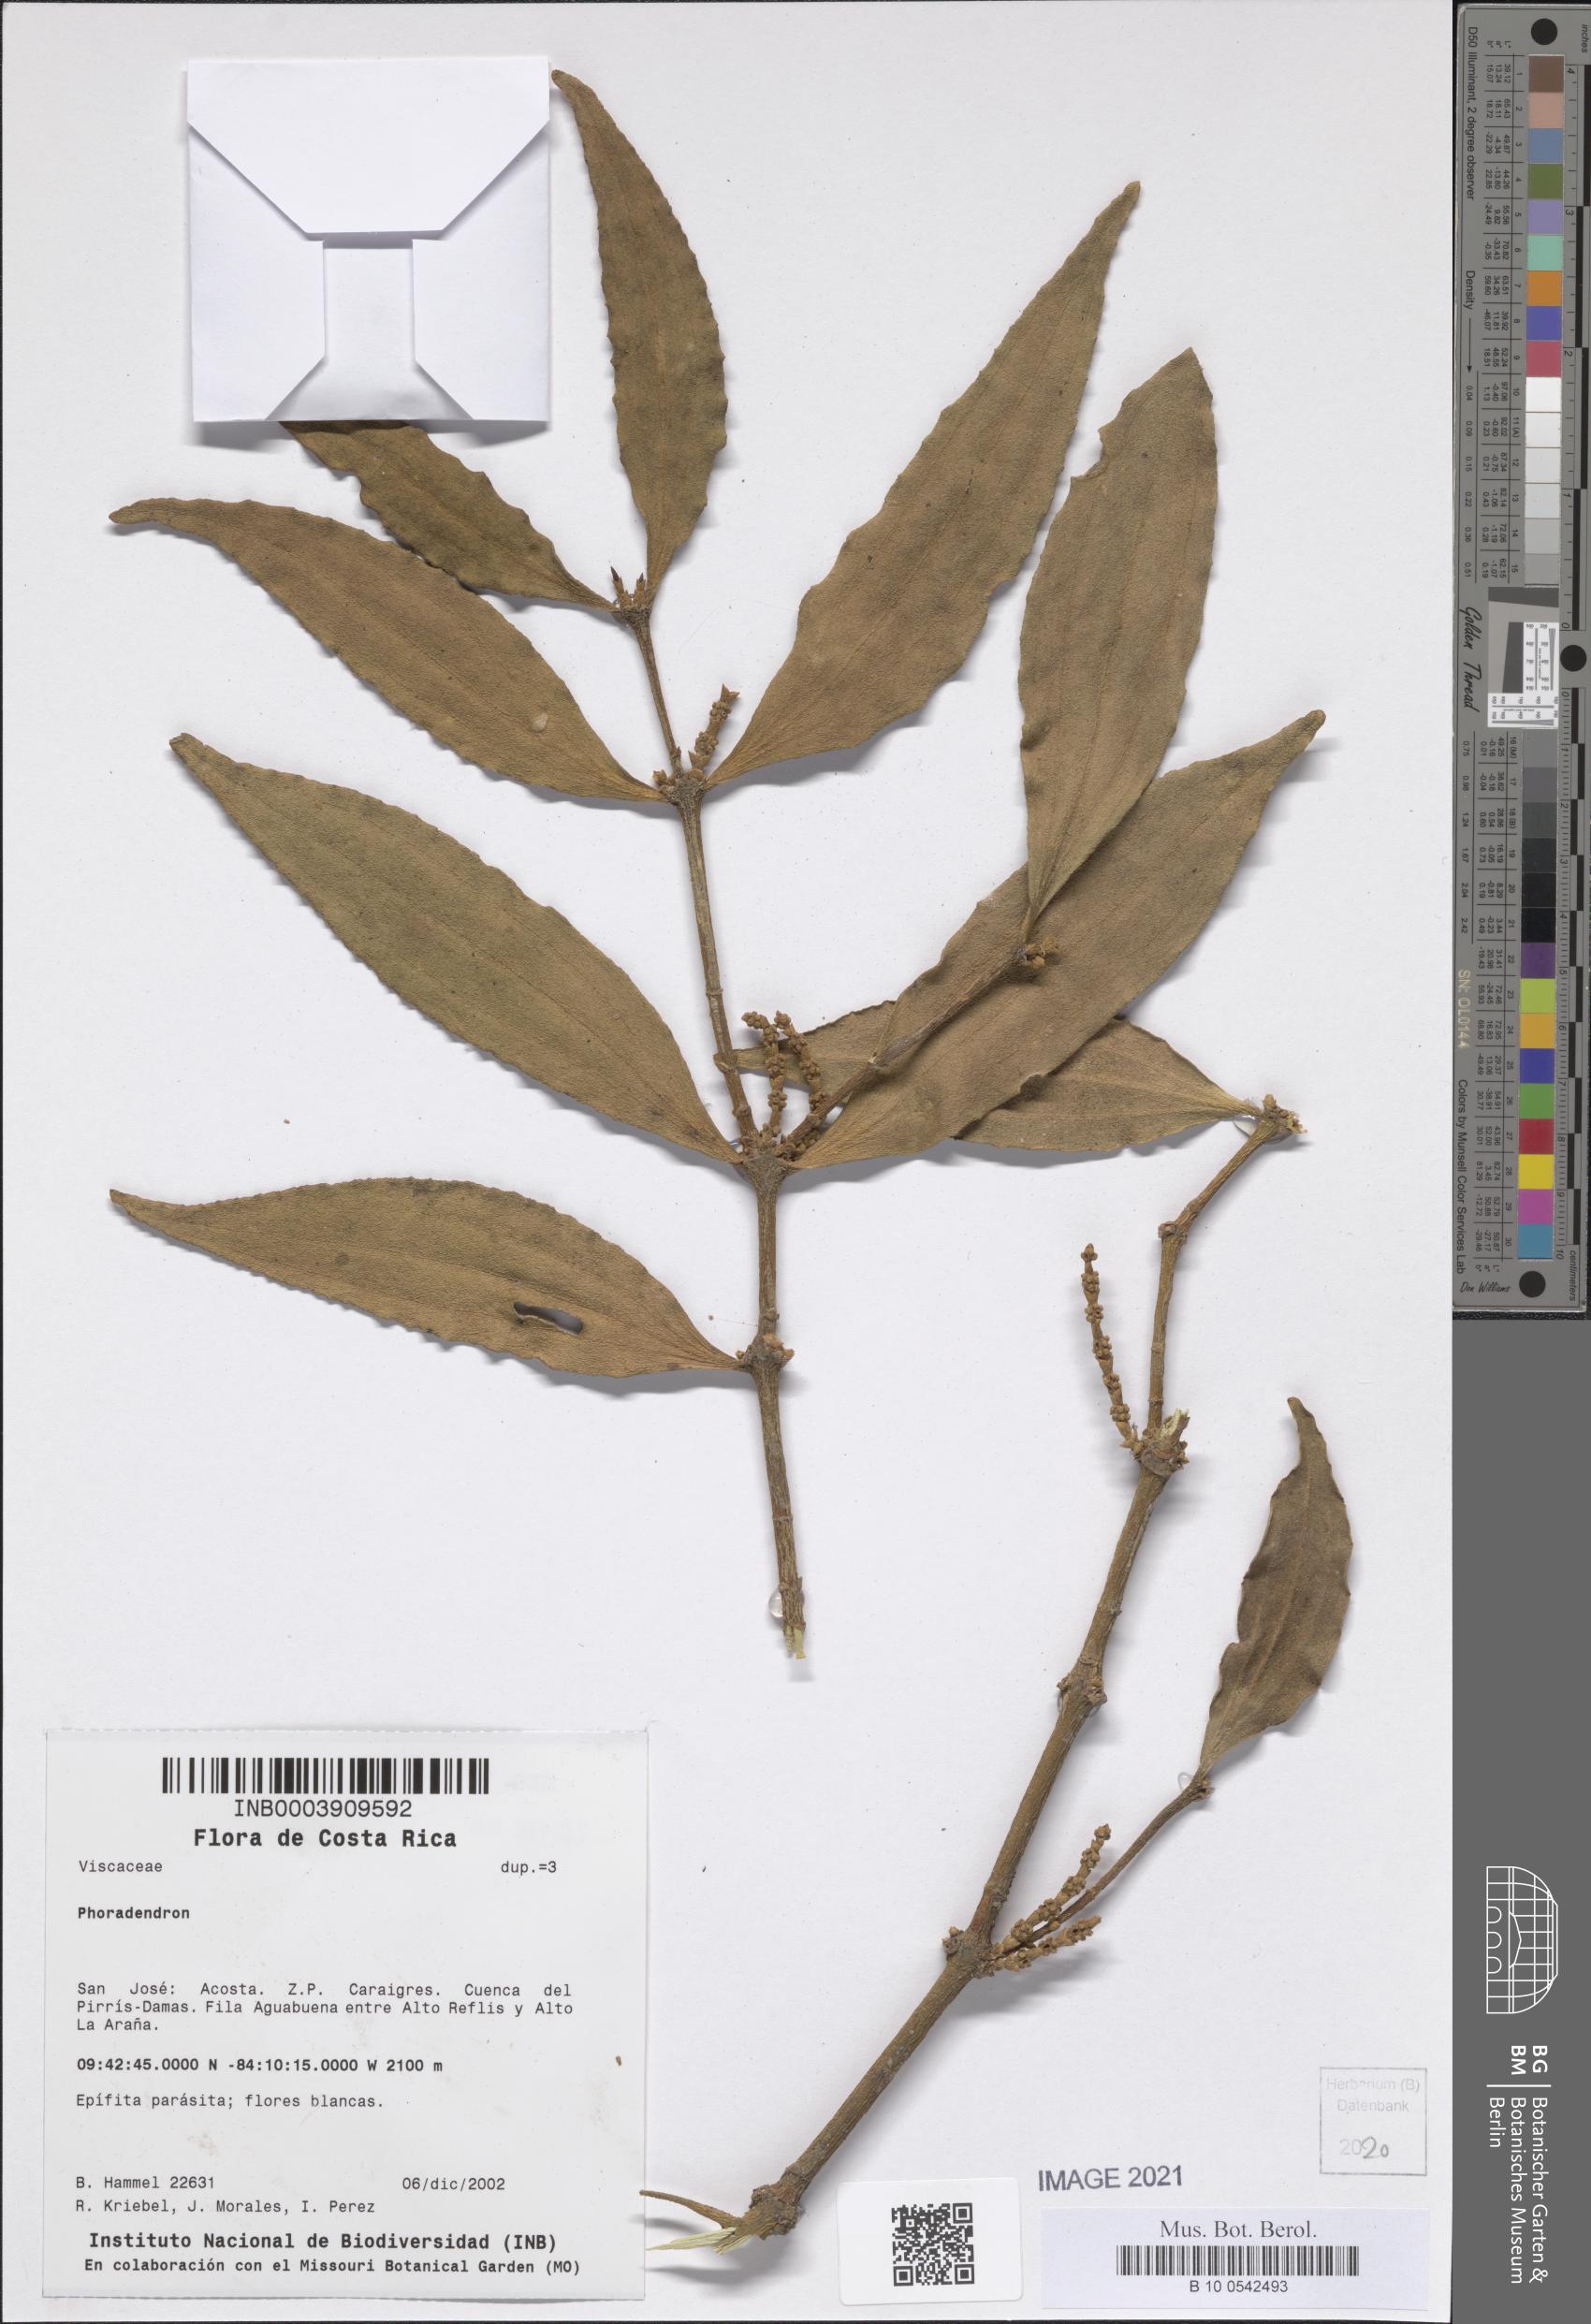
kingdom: Plantae
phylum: Tracheophyta
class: Magnoliopsida
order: Santalales
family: Viscaceae
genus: Phoradendron
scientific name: Phoradendron
